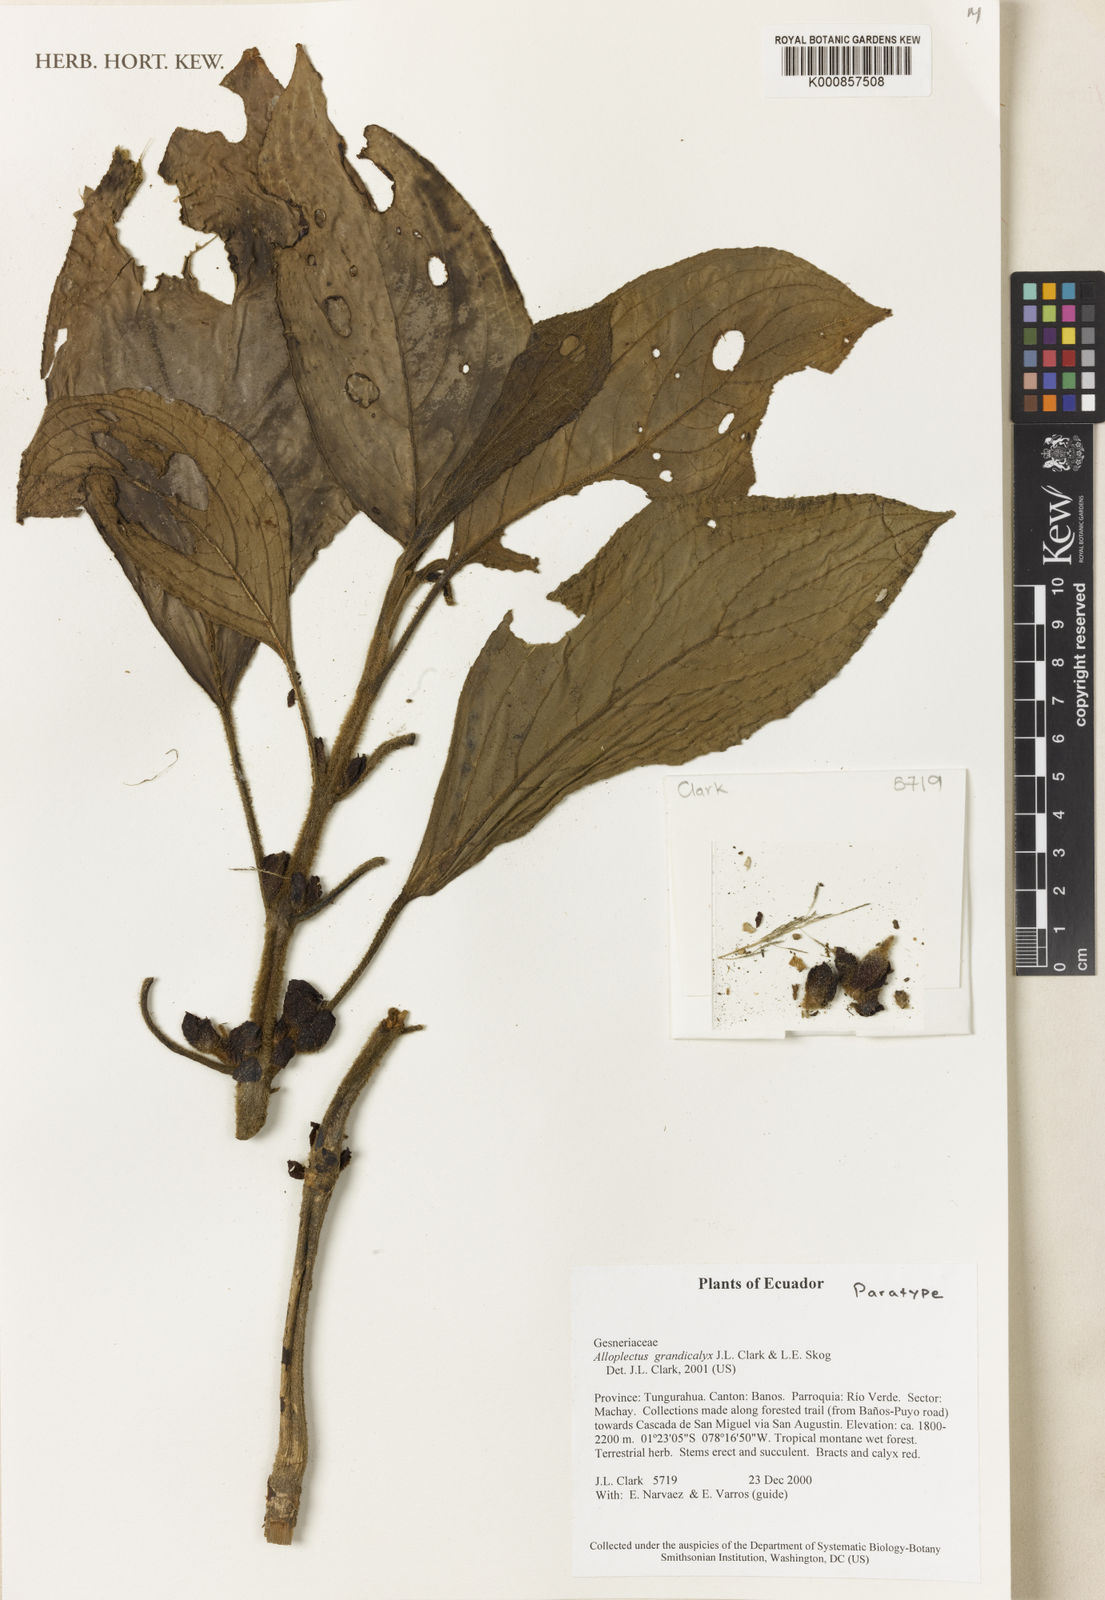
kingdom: Plantae
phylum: Tracheophyta
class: Magnoliopsida
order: Lamiales
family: Gesneriaceae
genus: Glossoloma
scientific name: Glossoloma grandicalyx
